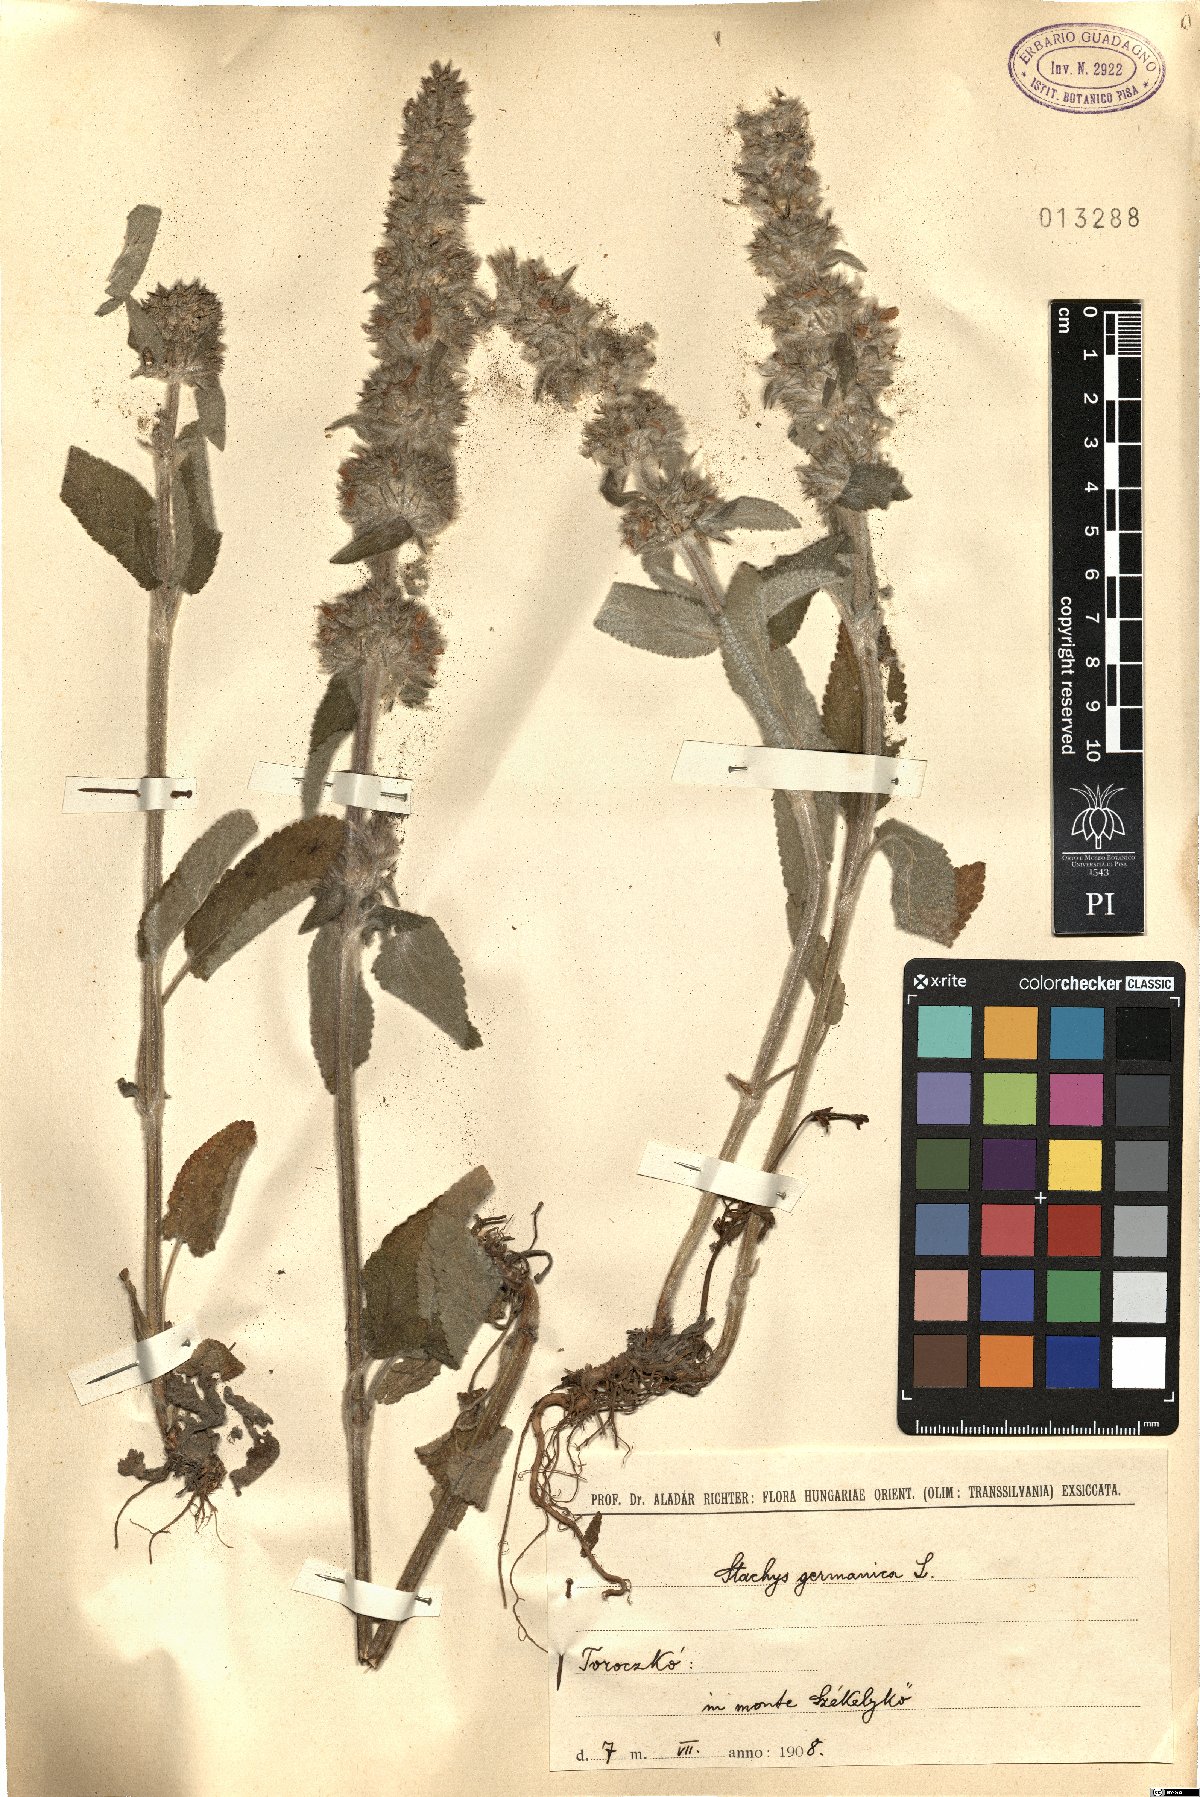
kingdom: Plantae
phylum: Tracheophyta
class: Magnoliopsida
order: Lamiales
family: Lamiaceae
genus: Stachys
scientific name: Stachys germanica
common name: Downy woundwort
